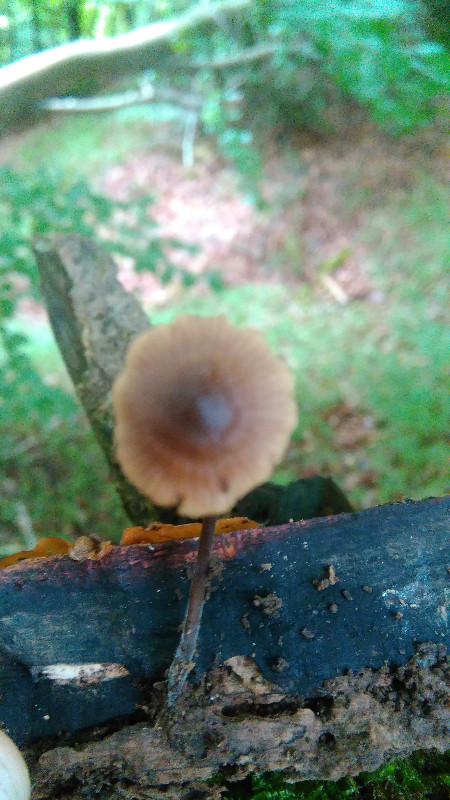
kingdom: Fungi
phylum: Basidiomycota
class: Agaricomycetes
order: Agaricales
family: Omphalotaceae
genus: Mycetinis
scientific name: Mycetinis alliaceus
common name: stor løghat
